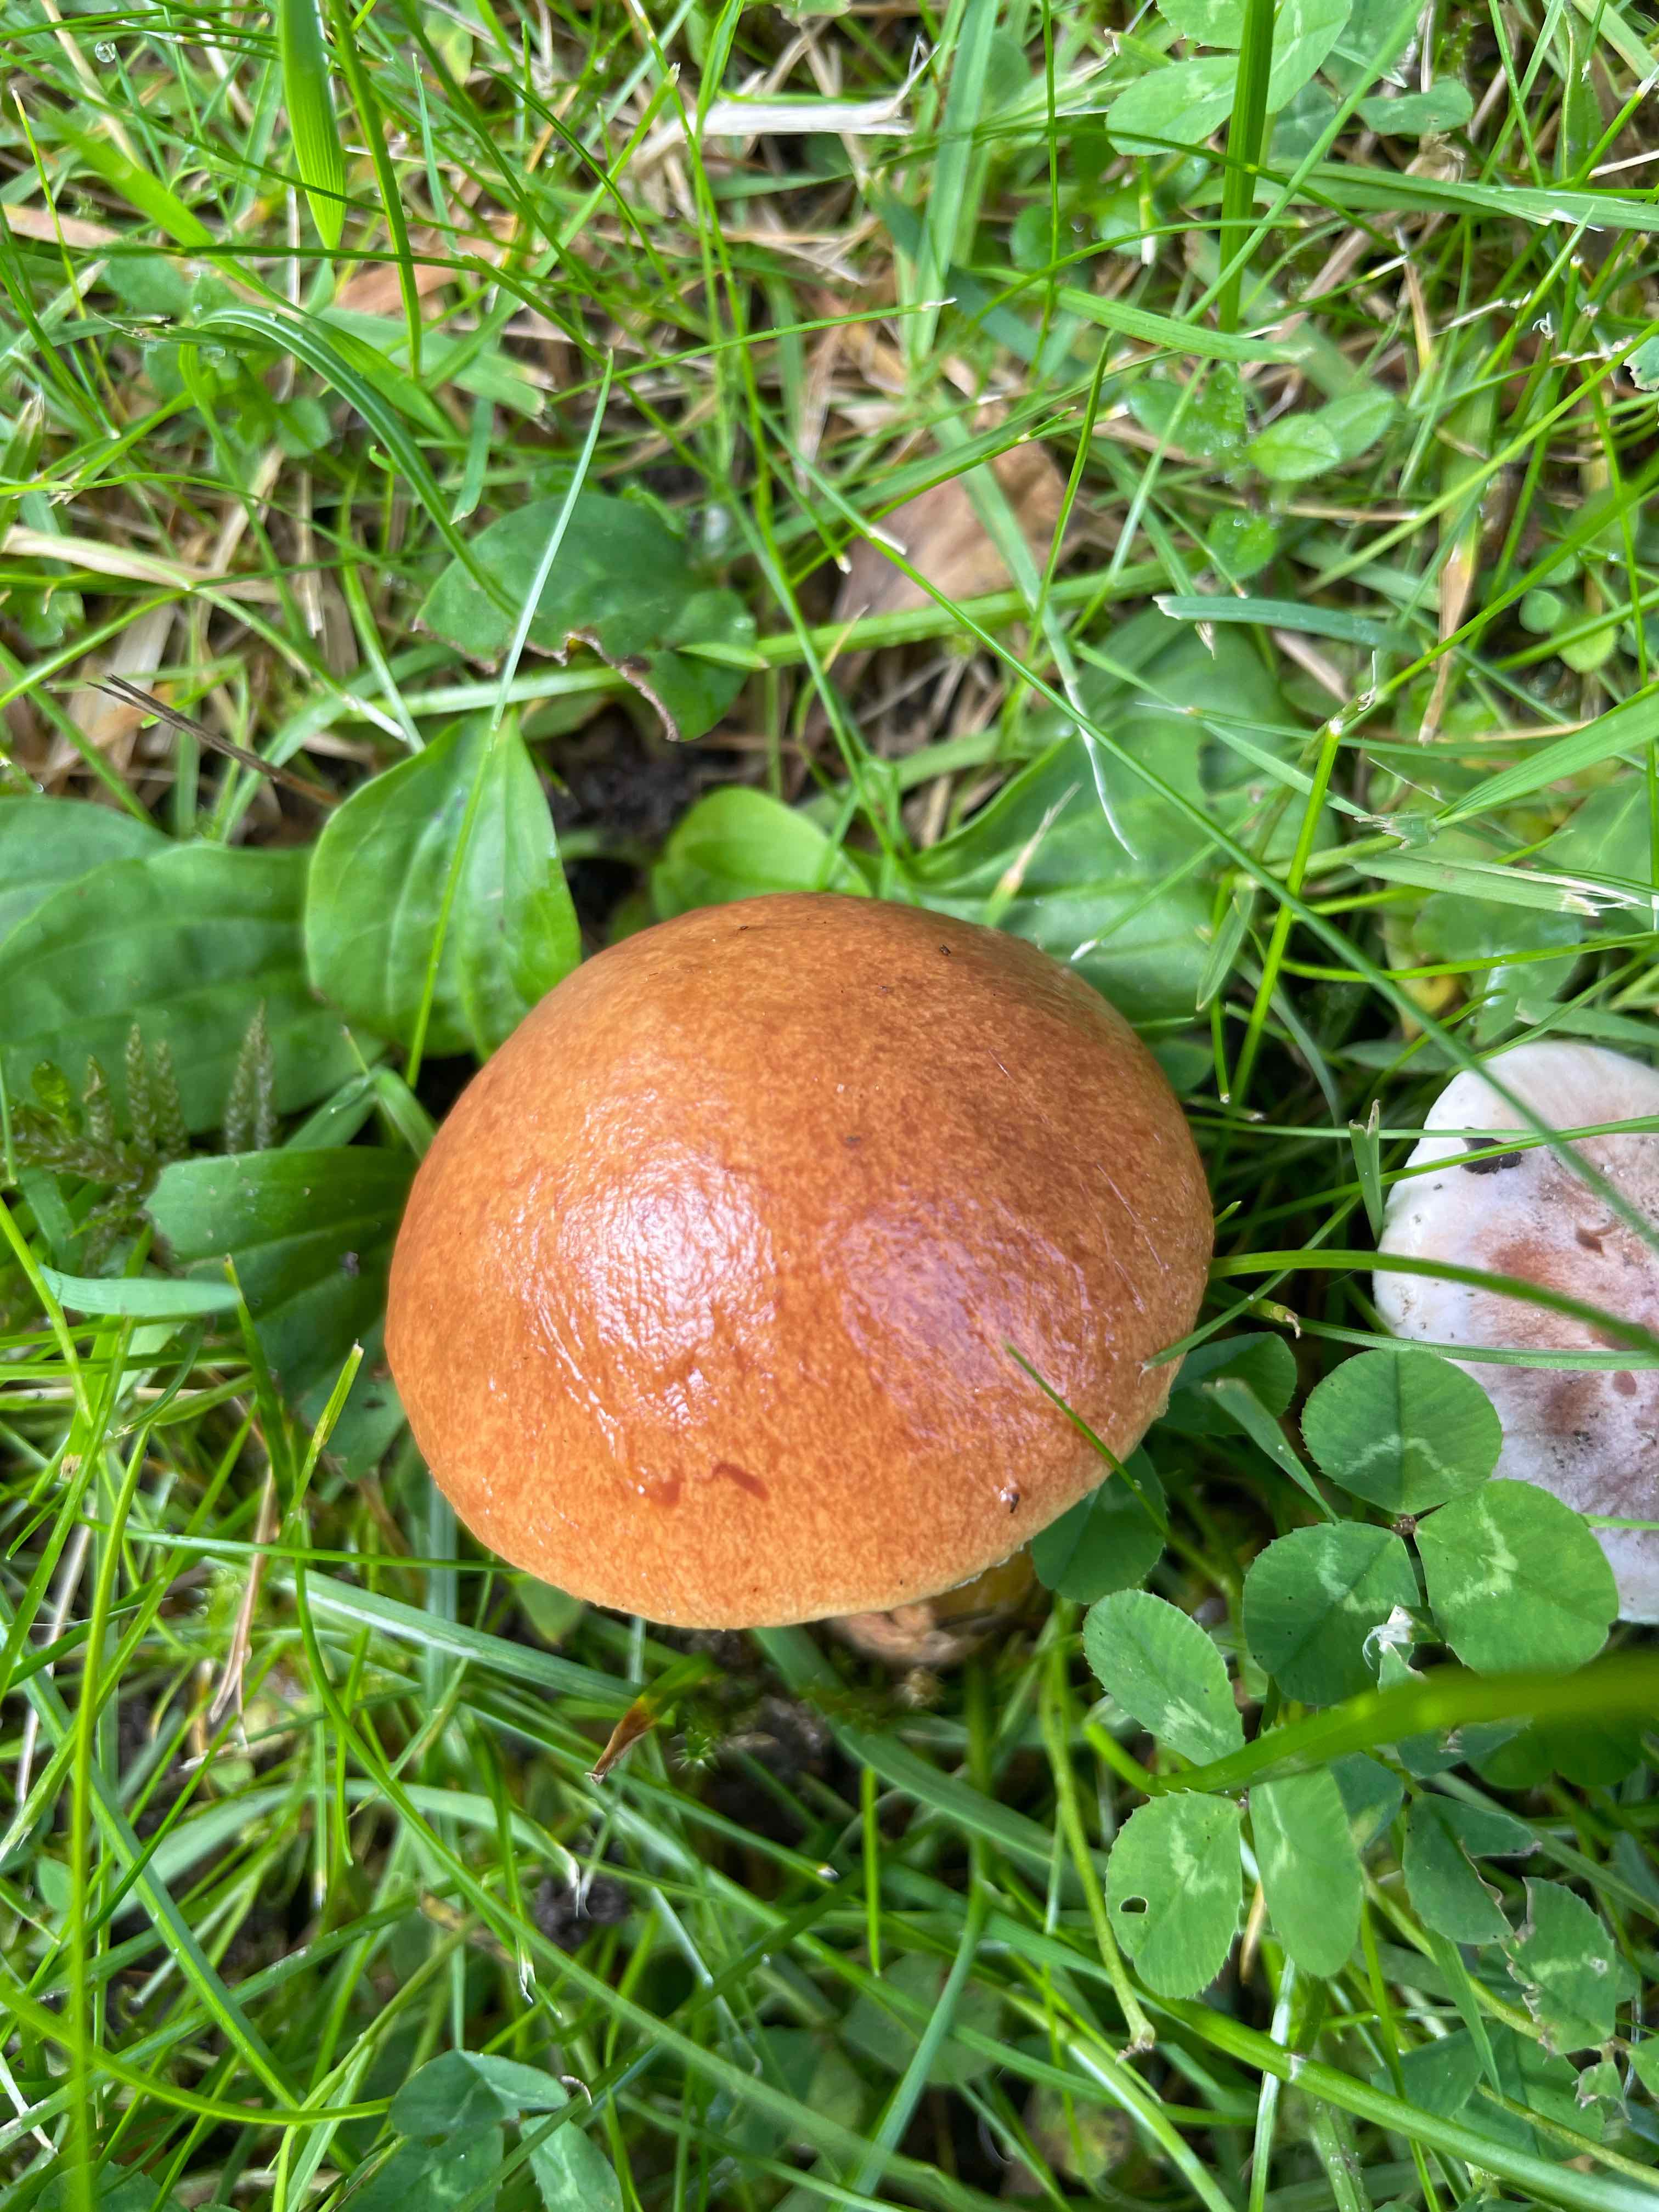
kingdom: Fungi
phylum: Basidiomycota
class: Agaricomycetes
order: Boletales
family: Suillaceae
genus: Suillus
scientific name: Suillus grevillei
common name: lærke-slimrørhat
